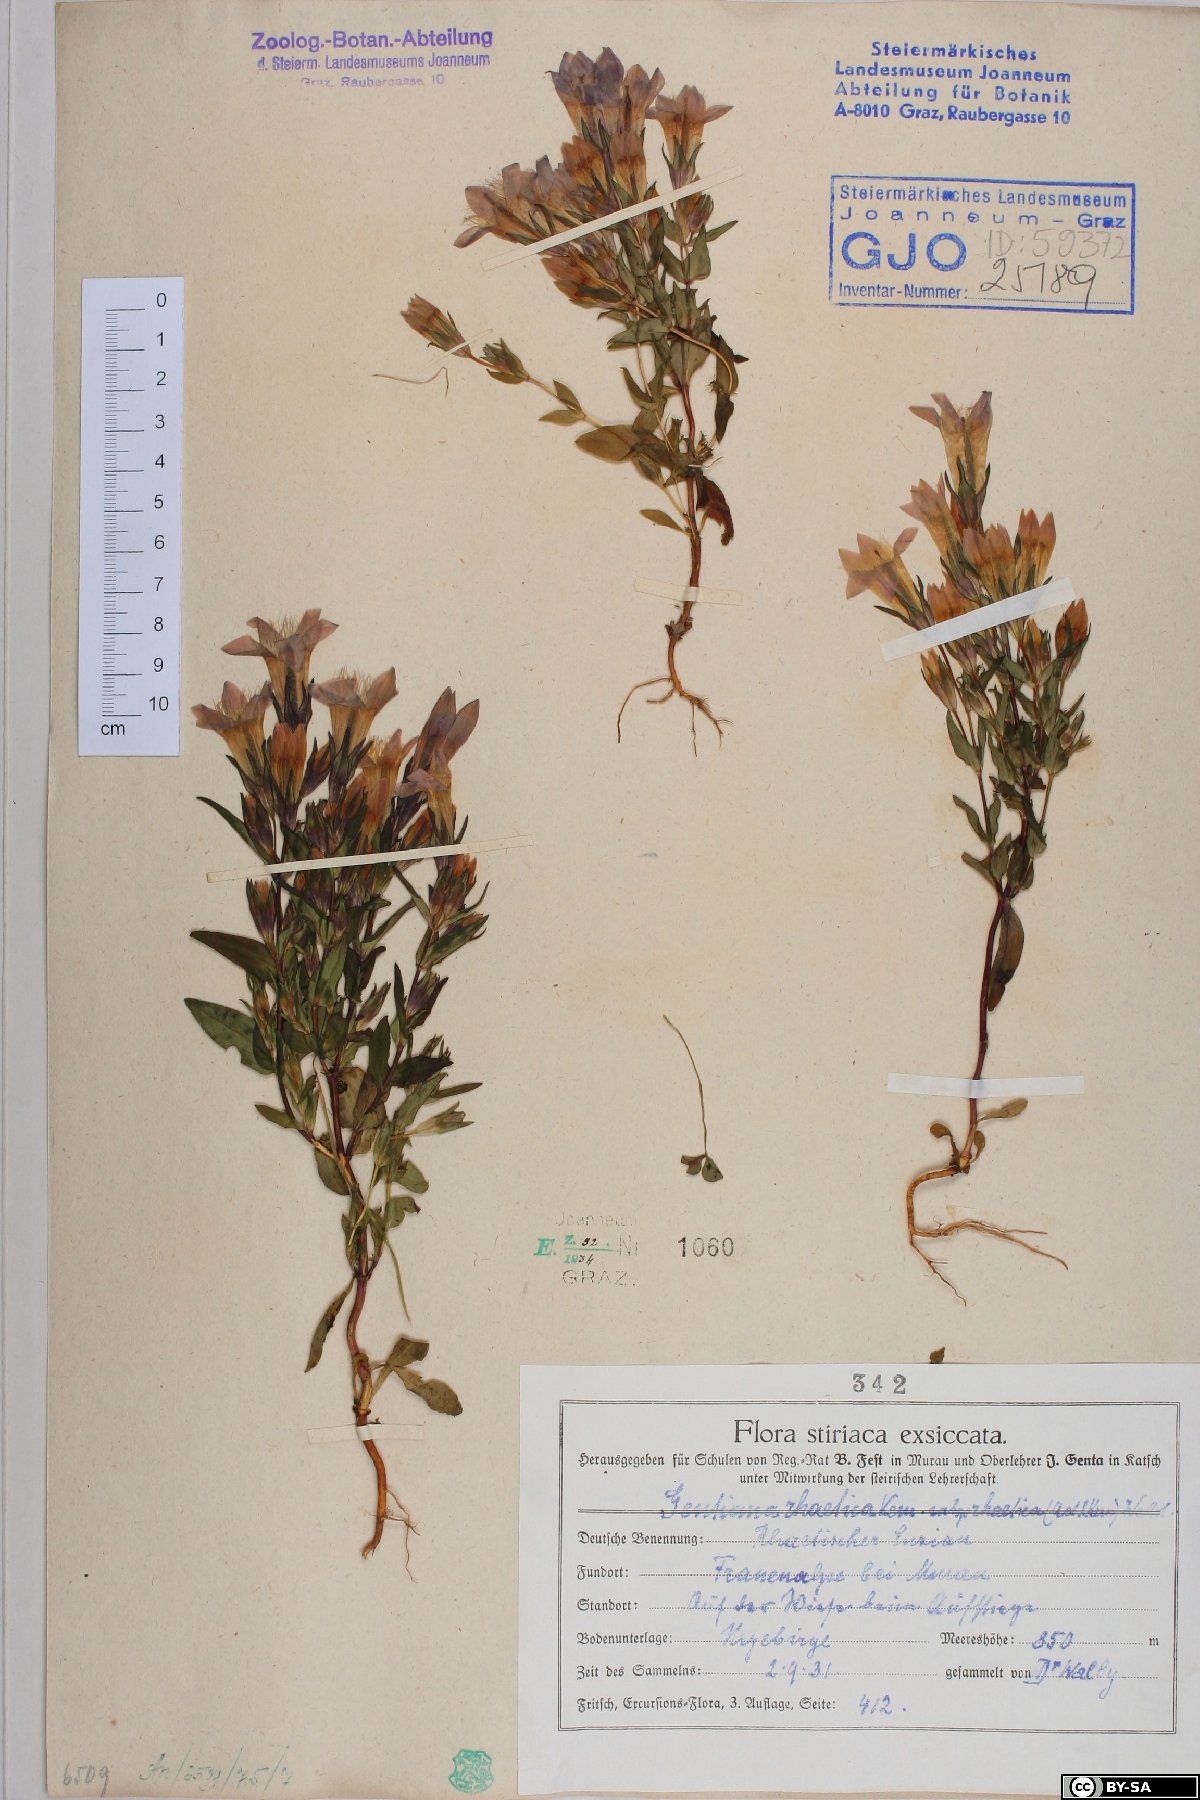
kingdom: Plantae
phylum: Tracheophyta
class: Magnoliopsida
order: Gentianales
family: Gentianaceae
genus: Gentianella
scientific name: Gentianella rhaetica
